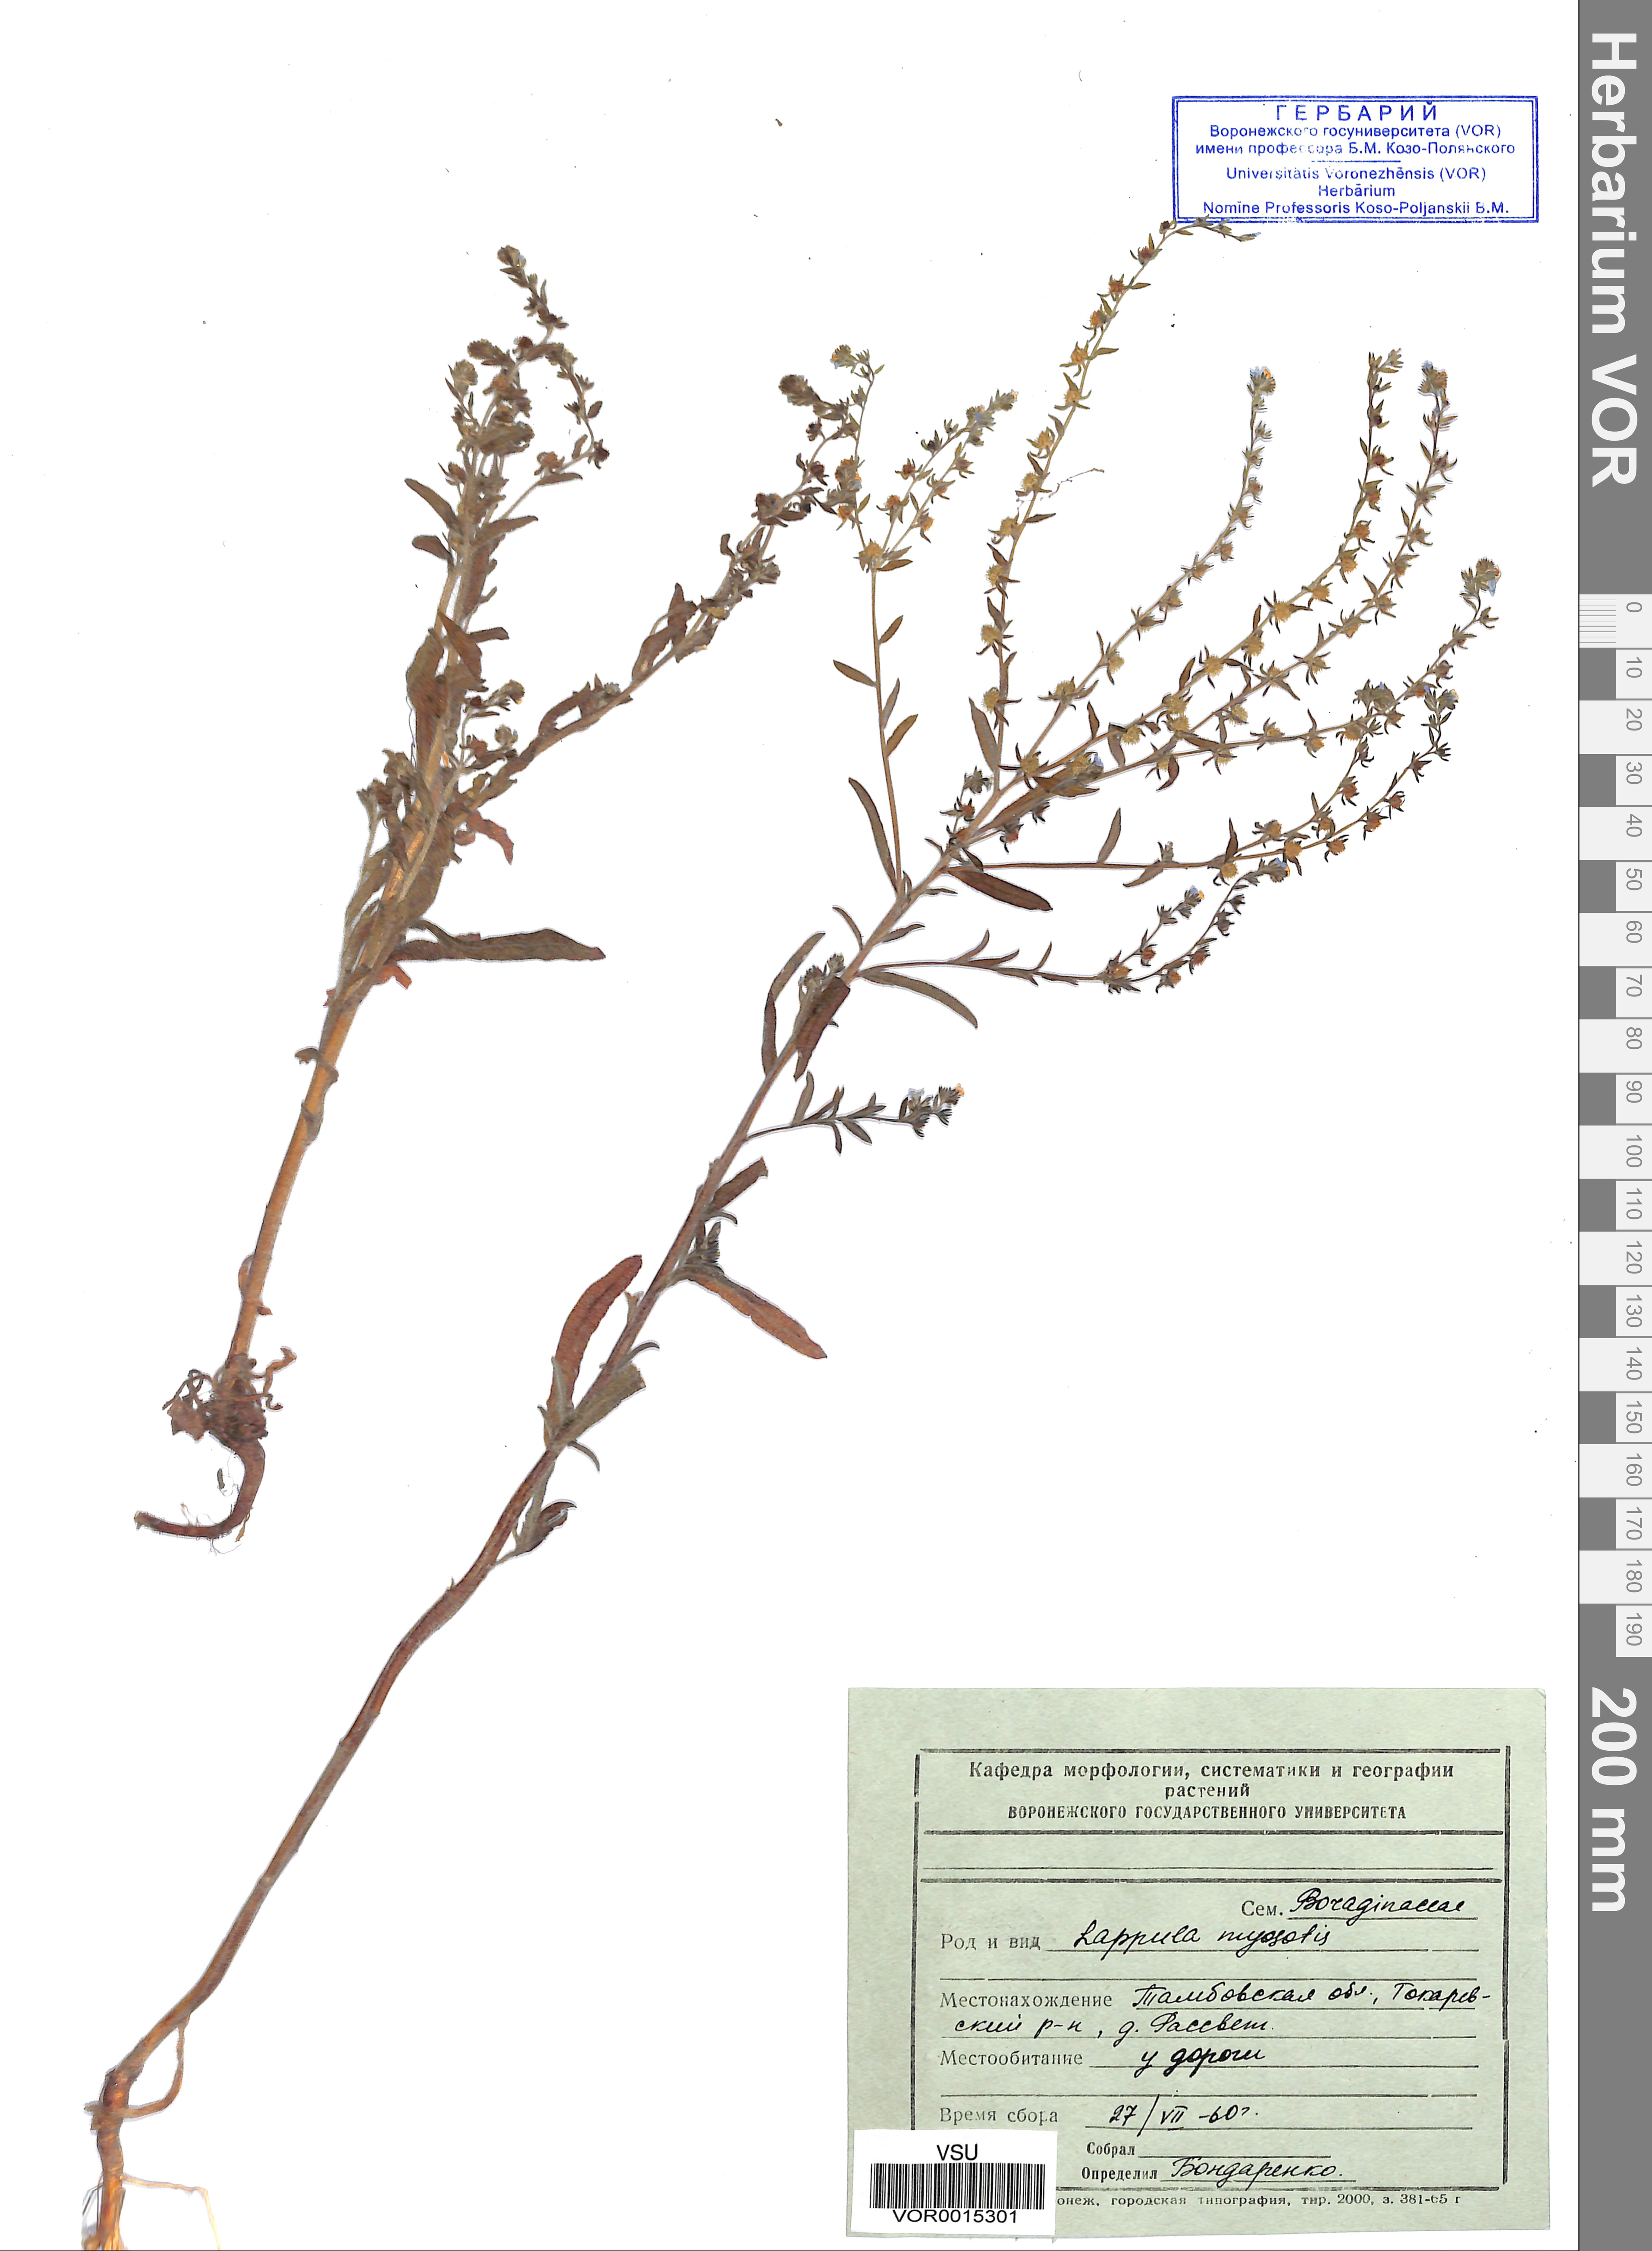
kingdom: Plantae
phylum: Tracheophyta
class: Magnoliopsida
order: Boraginales
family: Boraginaceae
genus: Lappula
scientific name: Lappula squarrosa
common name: European stickseed
